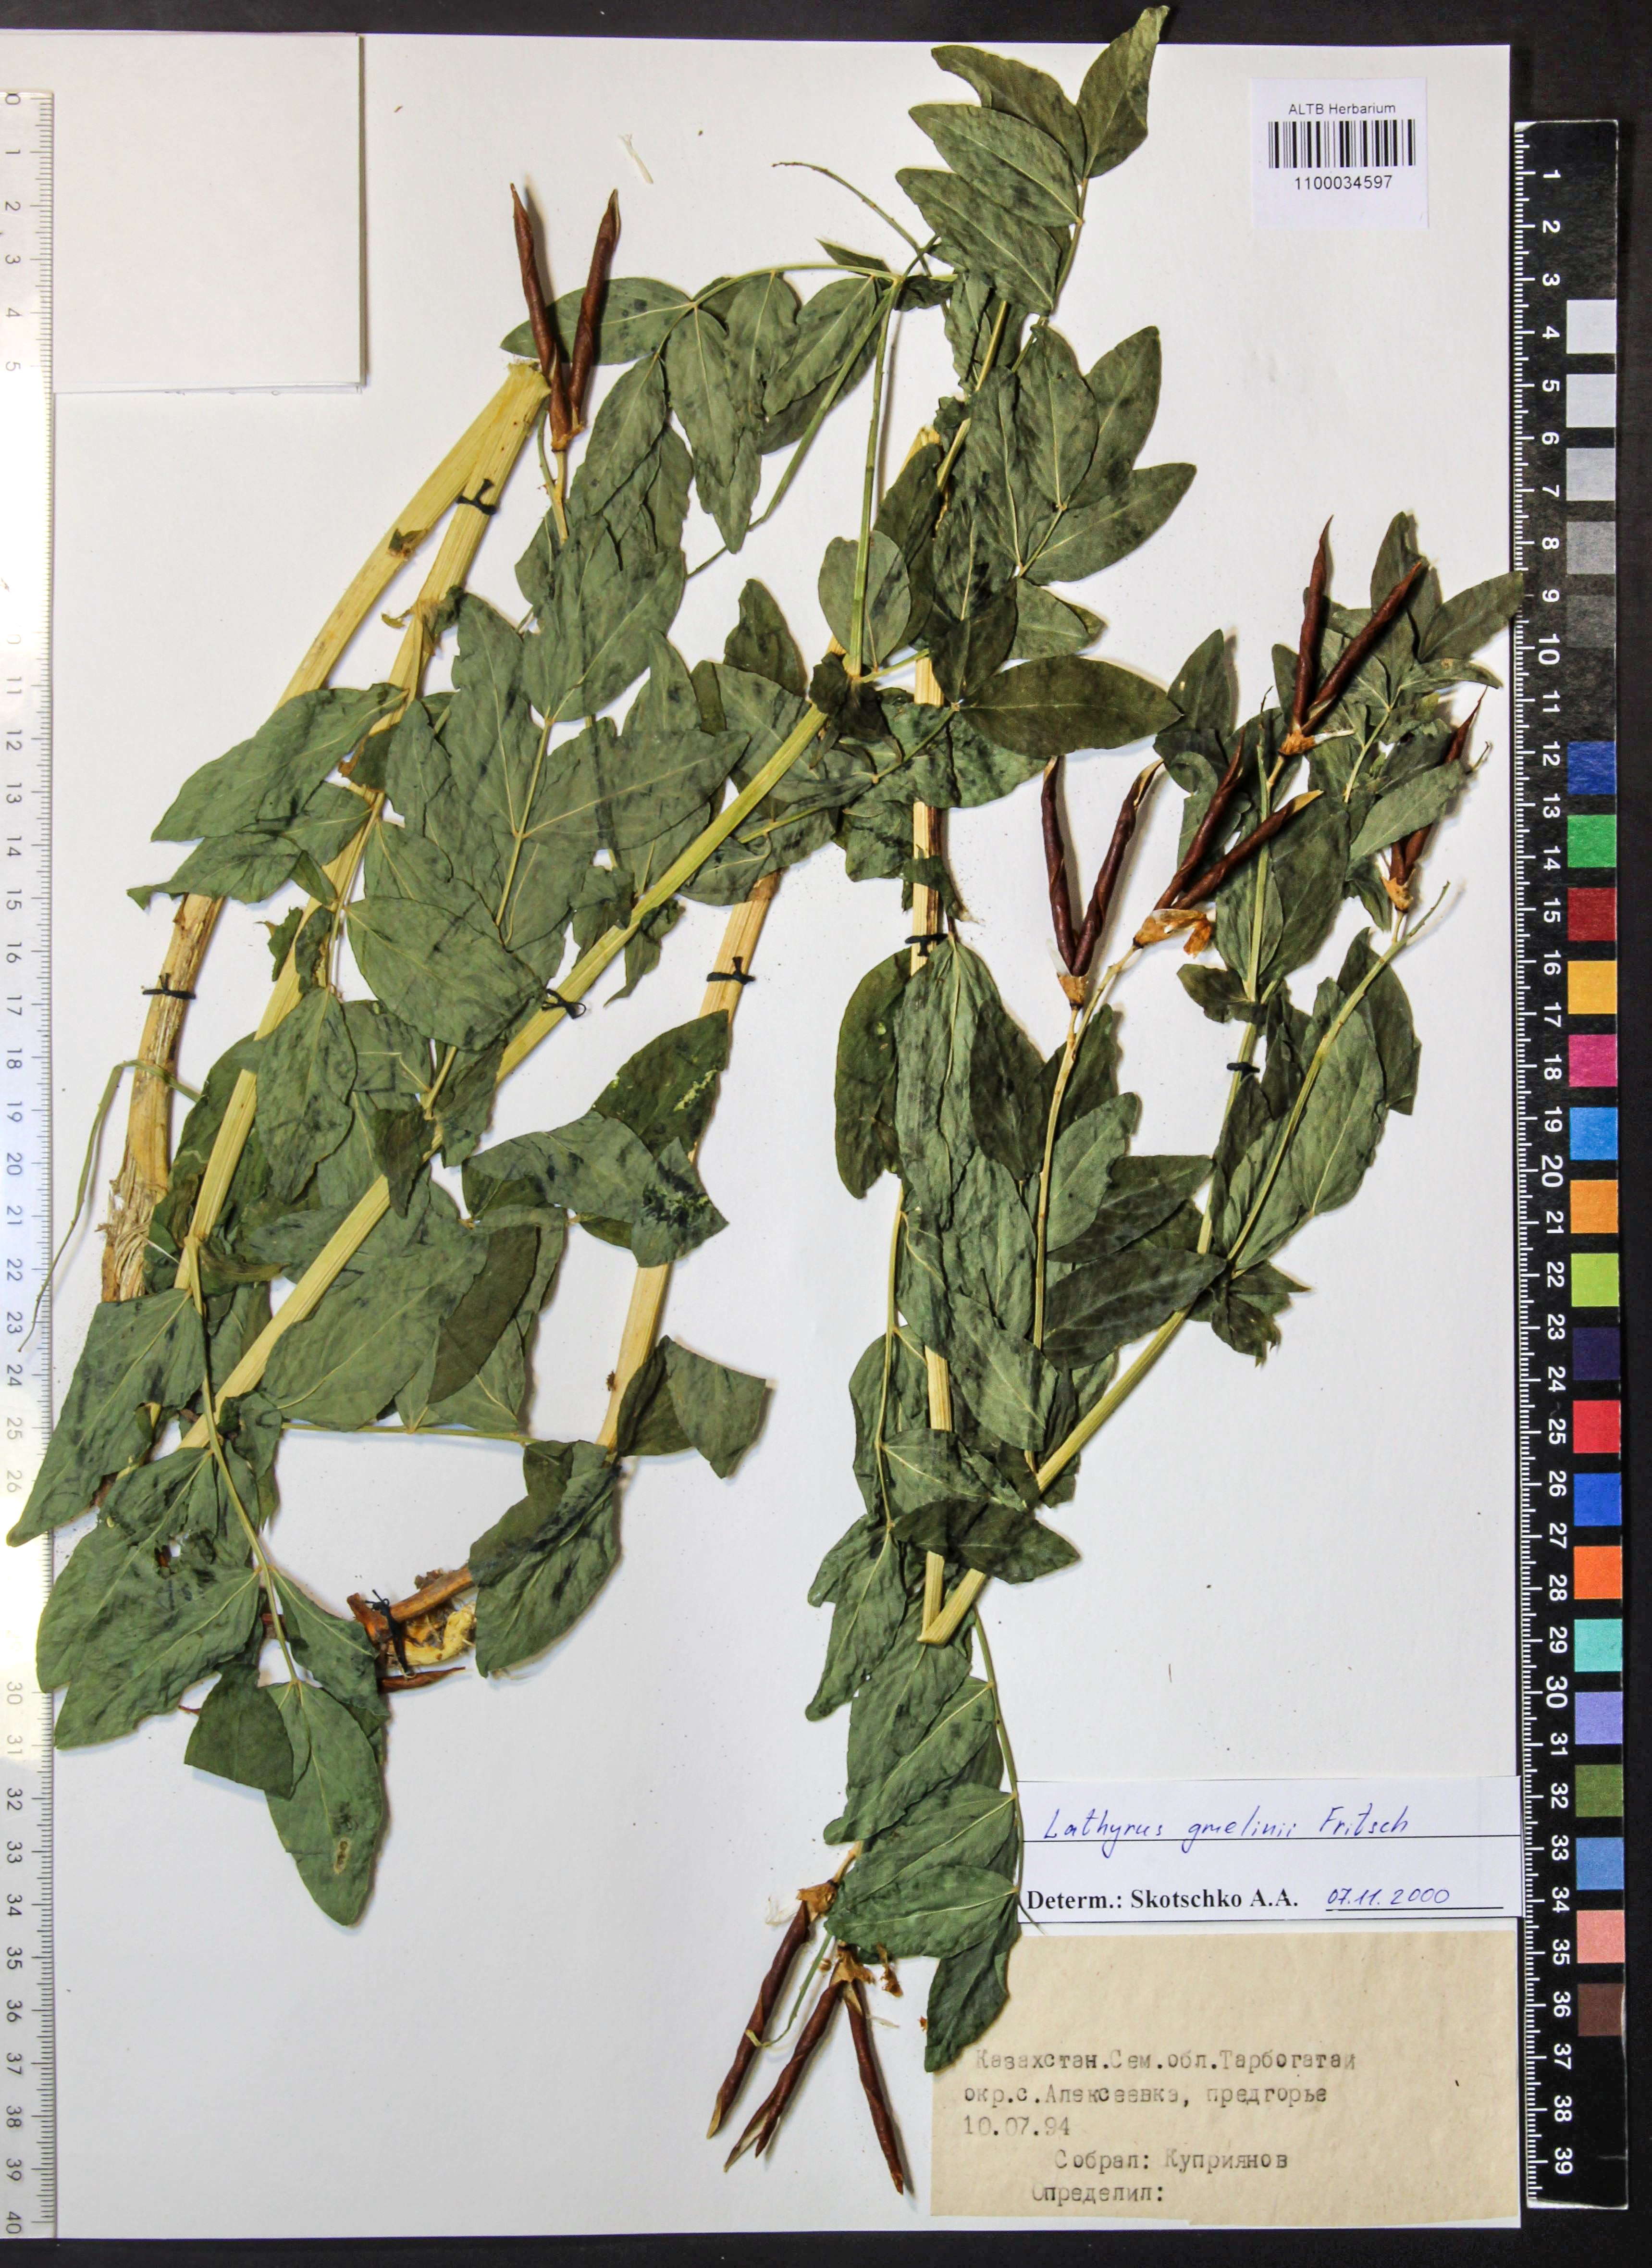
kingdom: Plantae
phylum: Tracheophyta
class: Magnoliopsida
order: Fabales
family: Fabaceae
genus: Lathyrus
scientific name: Lathyrus gmelinii
